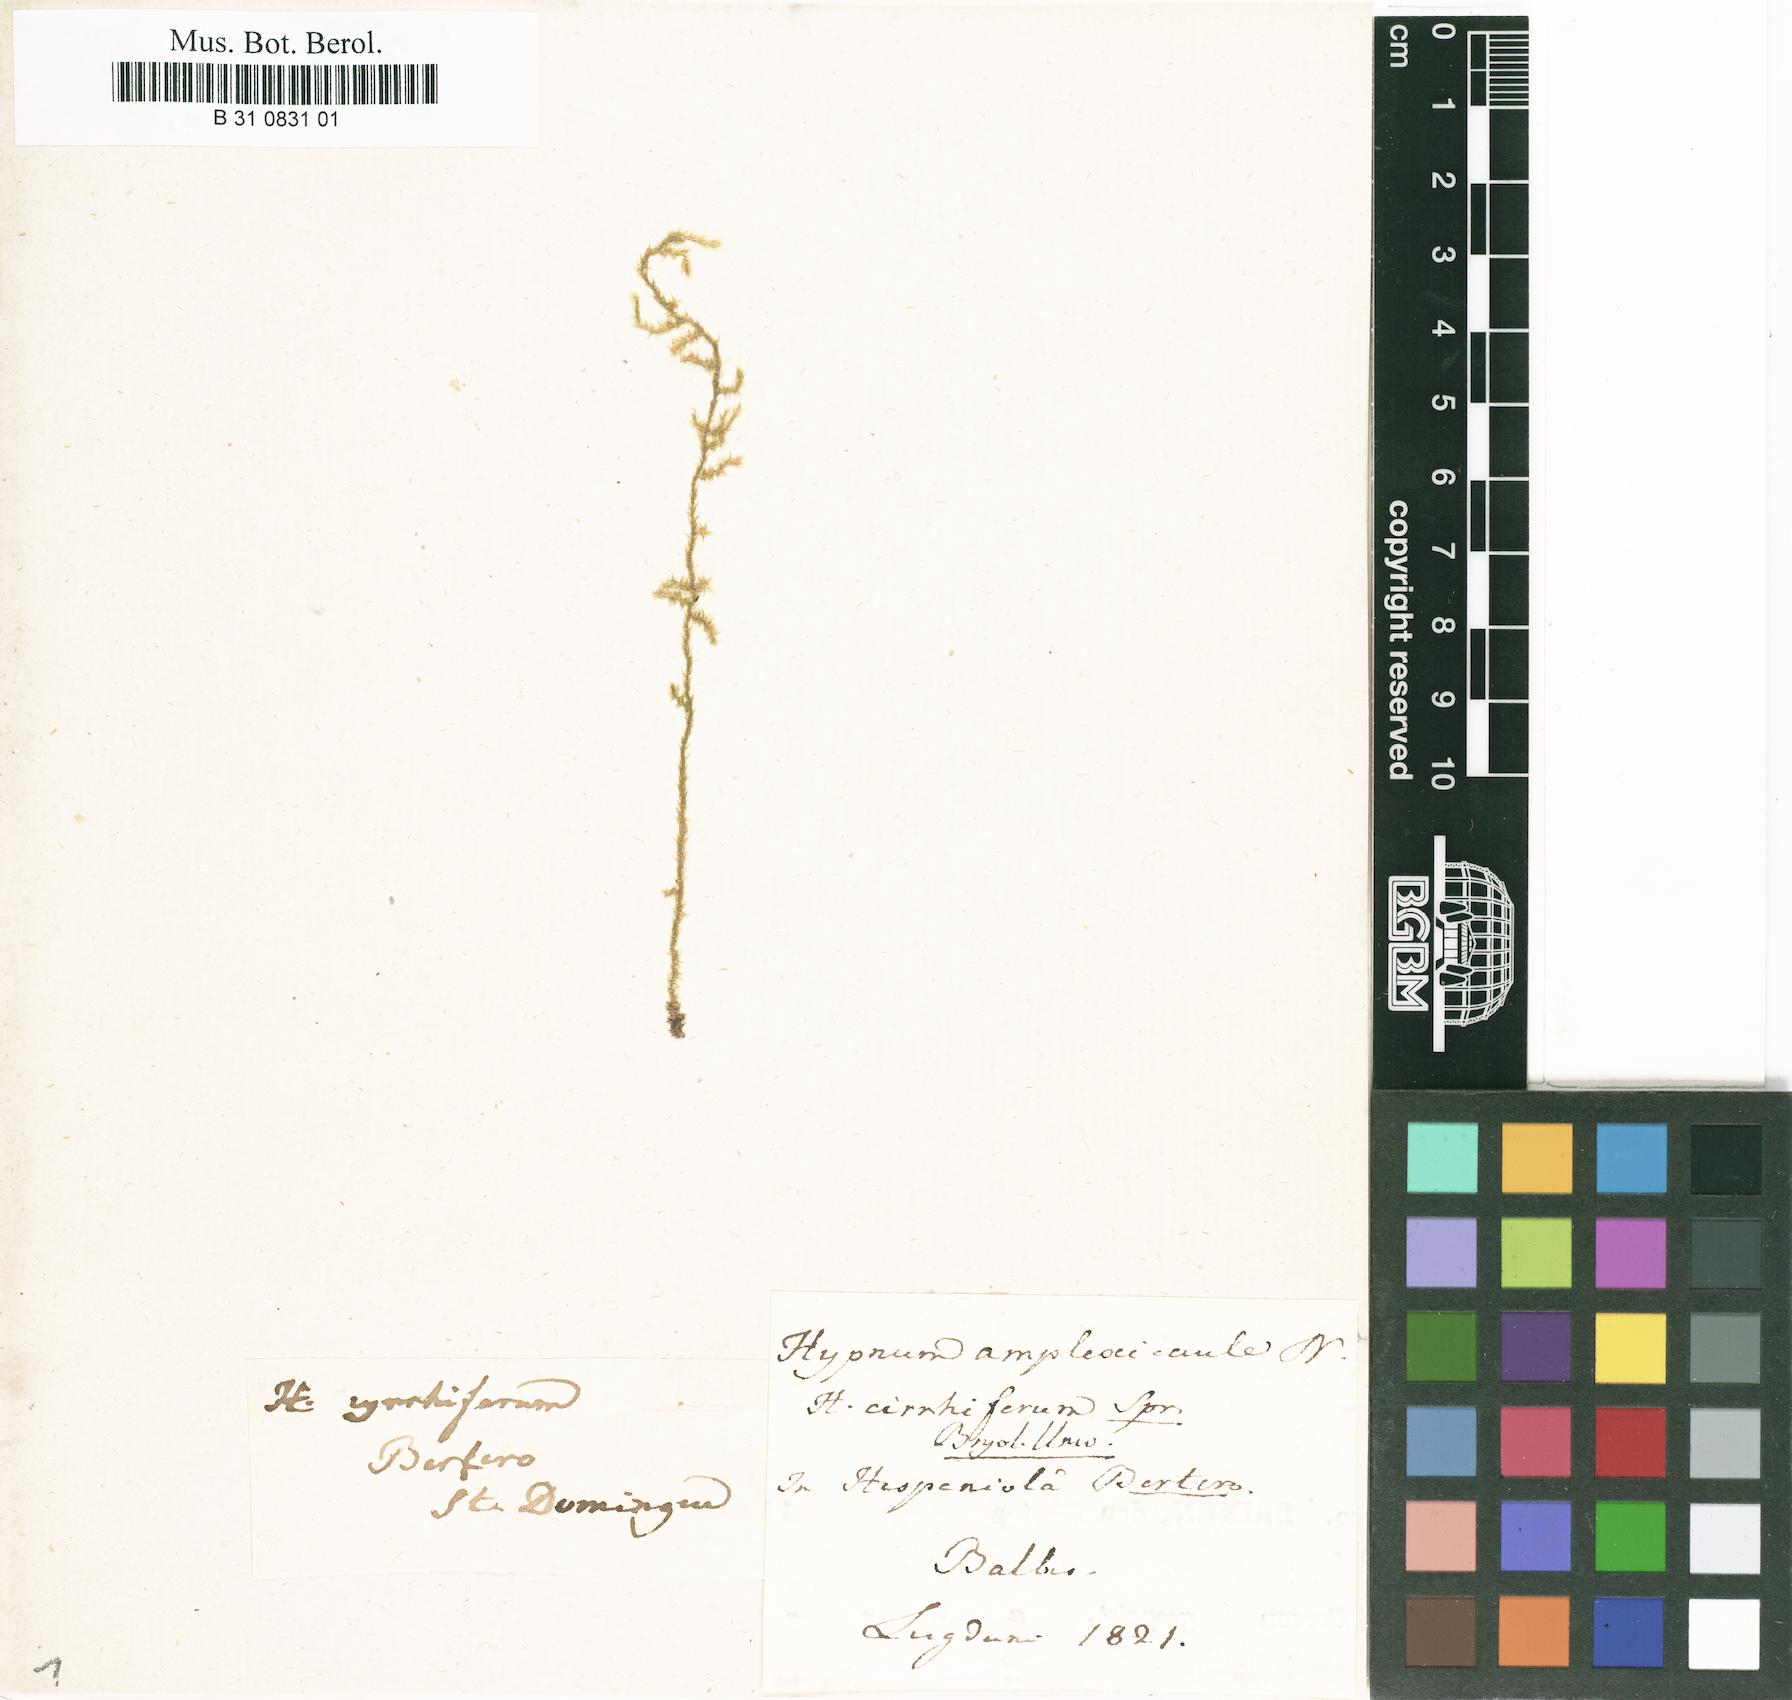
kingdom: Plantae
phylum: Bryophyta
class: Bryopsida
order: Hypnales
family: Brachytheciaceae
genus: Zelometeorium
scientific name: Zelometeorium patulum
